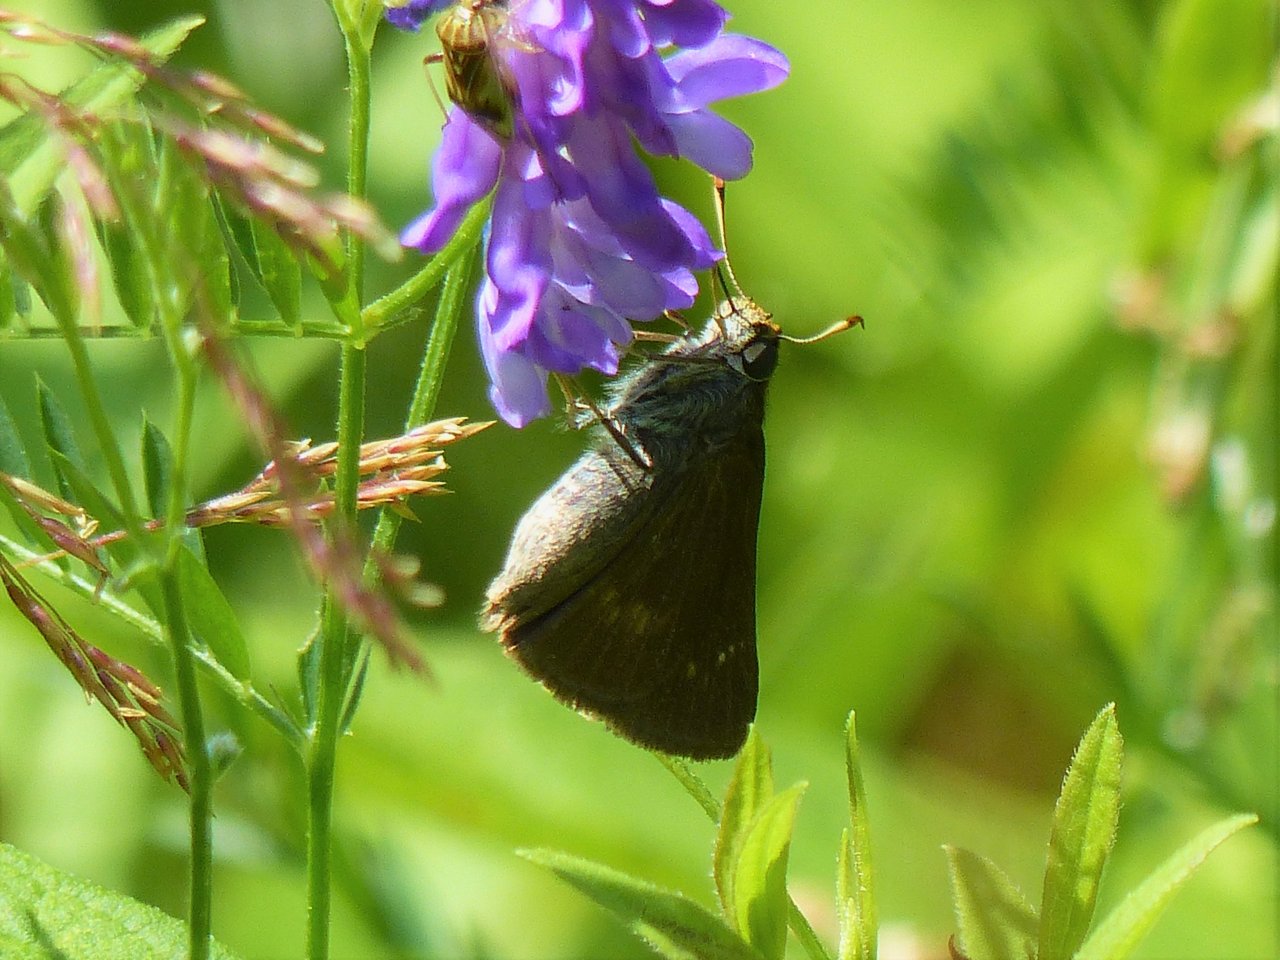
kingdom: Animalia
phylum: Arthropoda
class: Insecta
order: Lepidoptera
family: Hesperiidae
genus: Polites
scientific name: Polites egeremet
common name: Northern Broken-Dash
